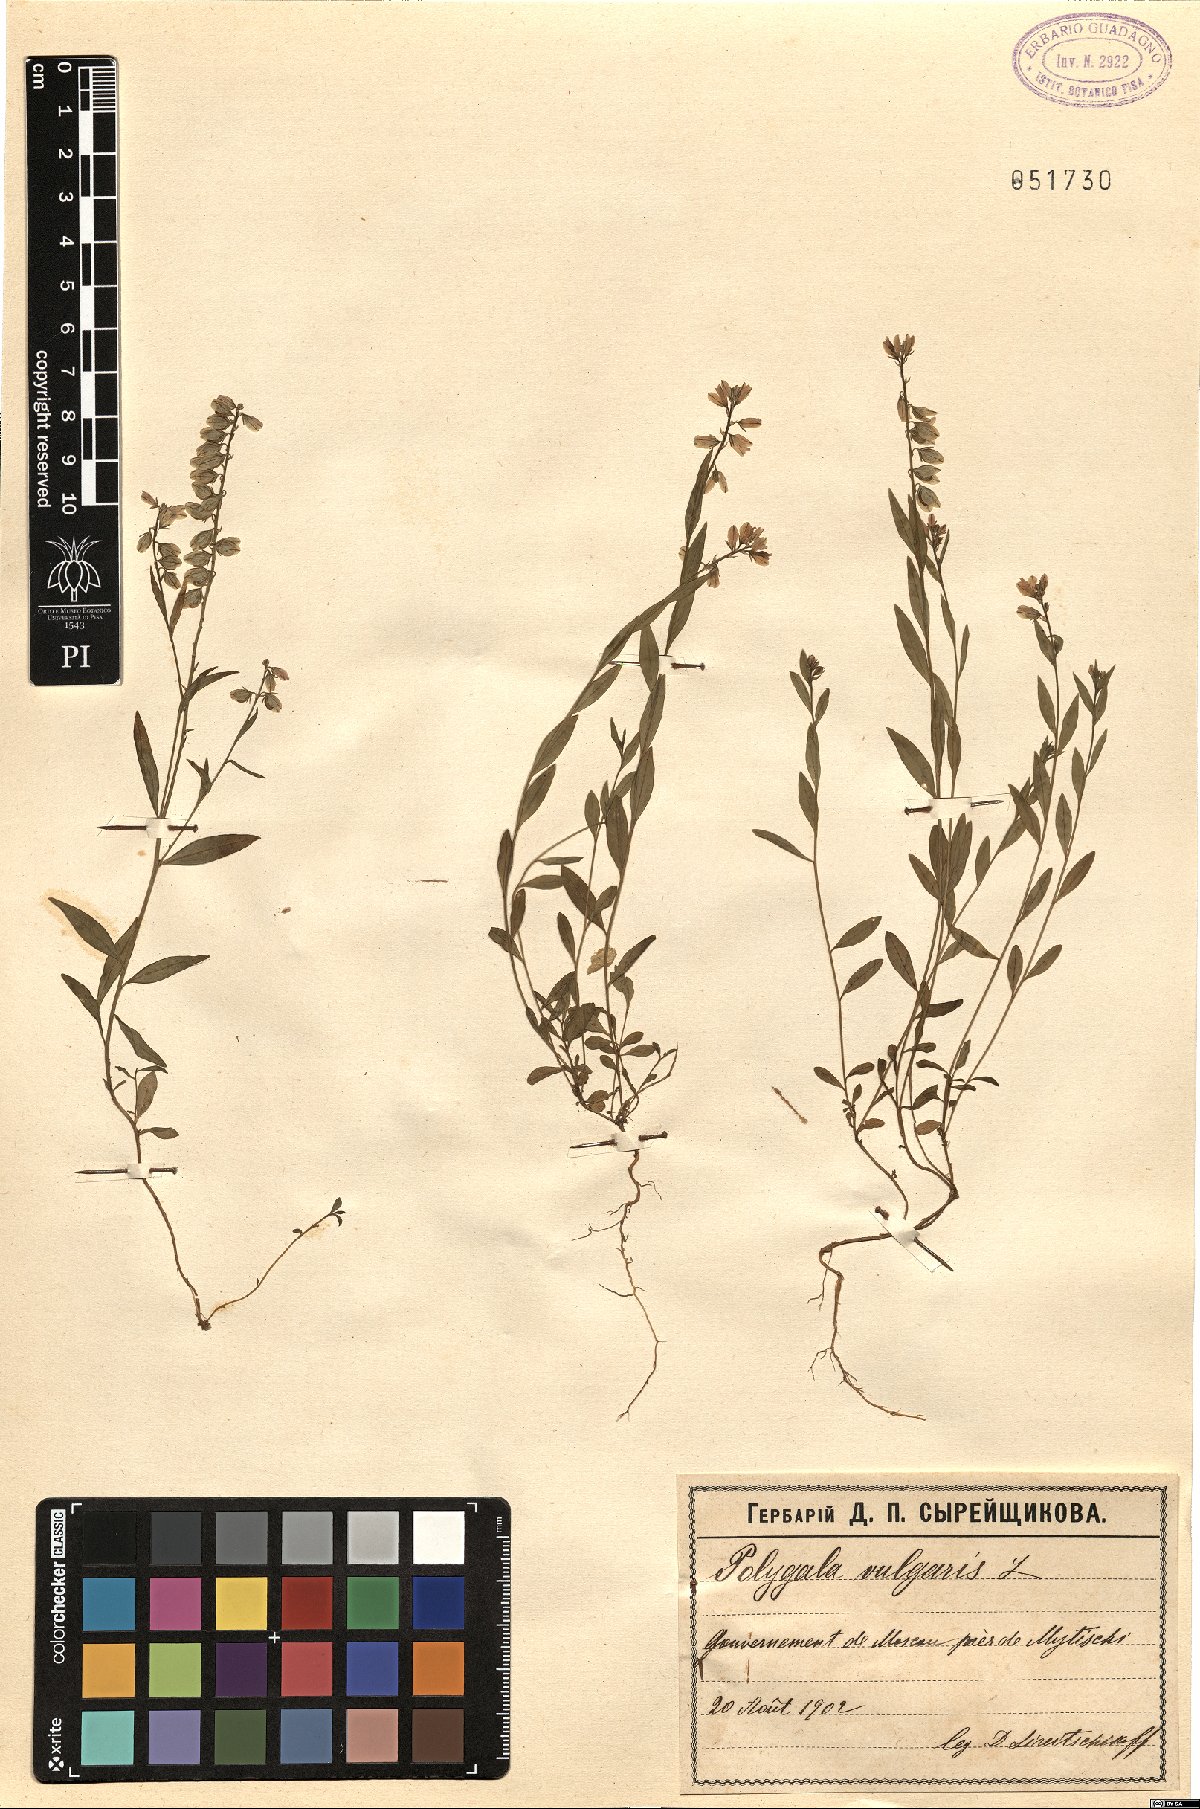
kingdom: Plantae
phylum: Tracheophyta
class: Magnoliopsida
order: Fabales
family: Polygalaceae
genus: Polygala
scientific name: Polygala vulgaris
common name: Common milkwort
